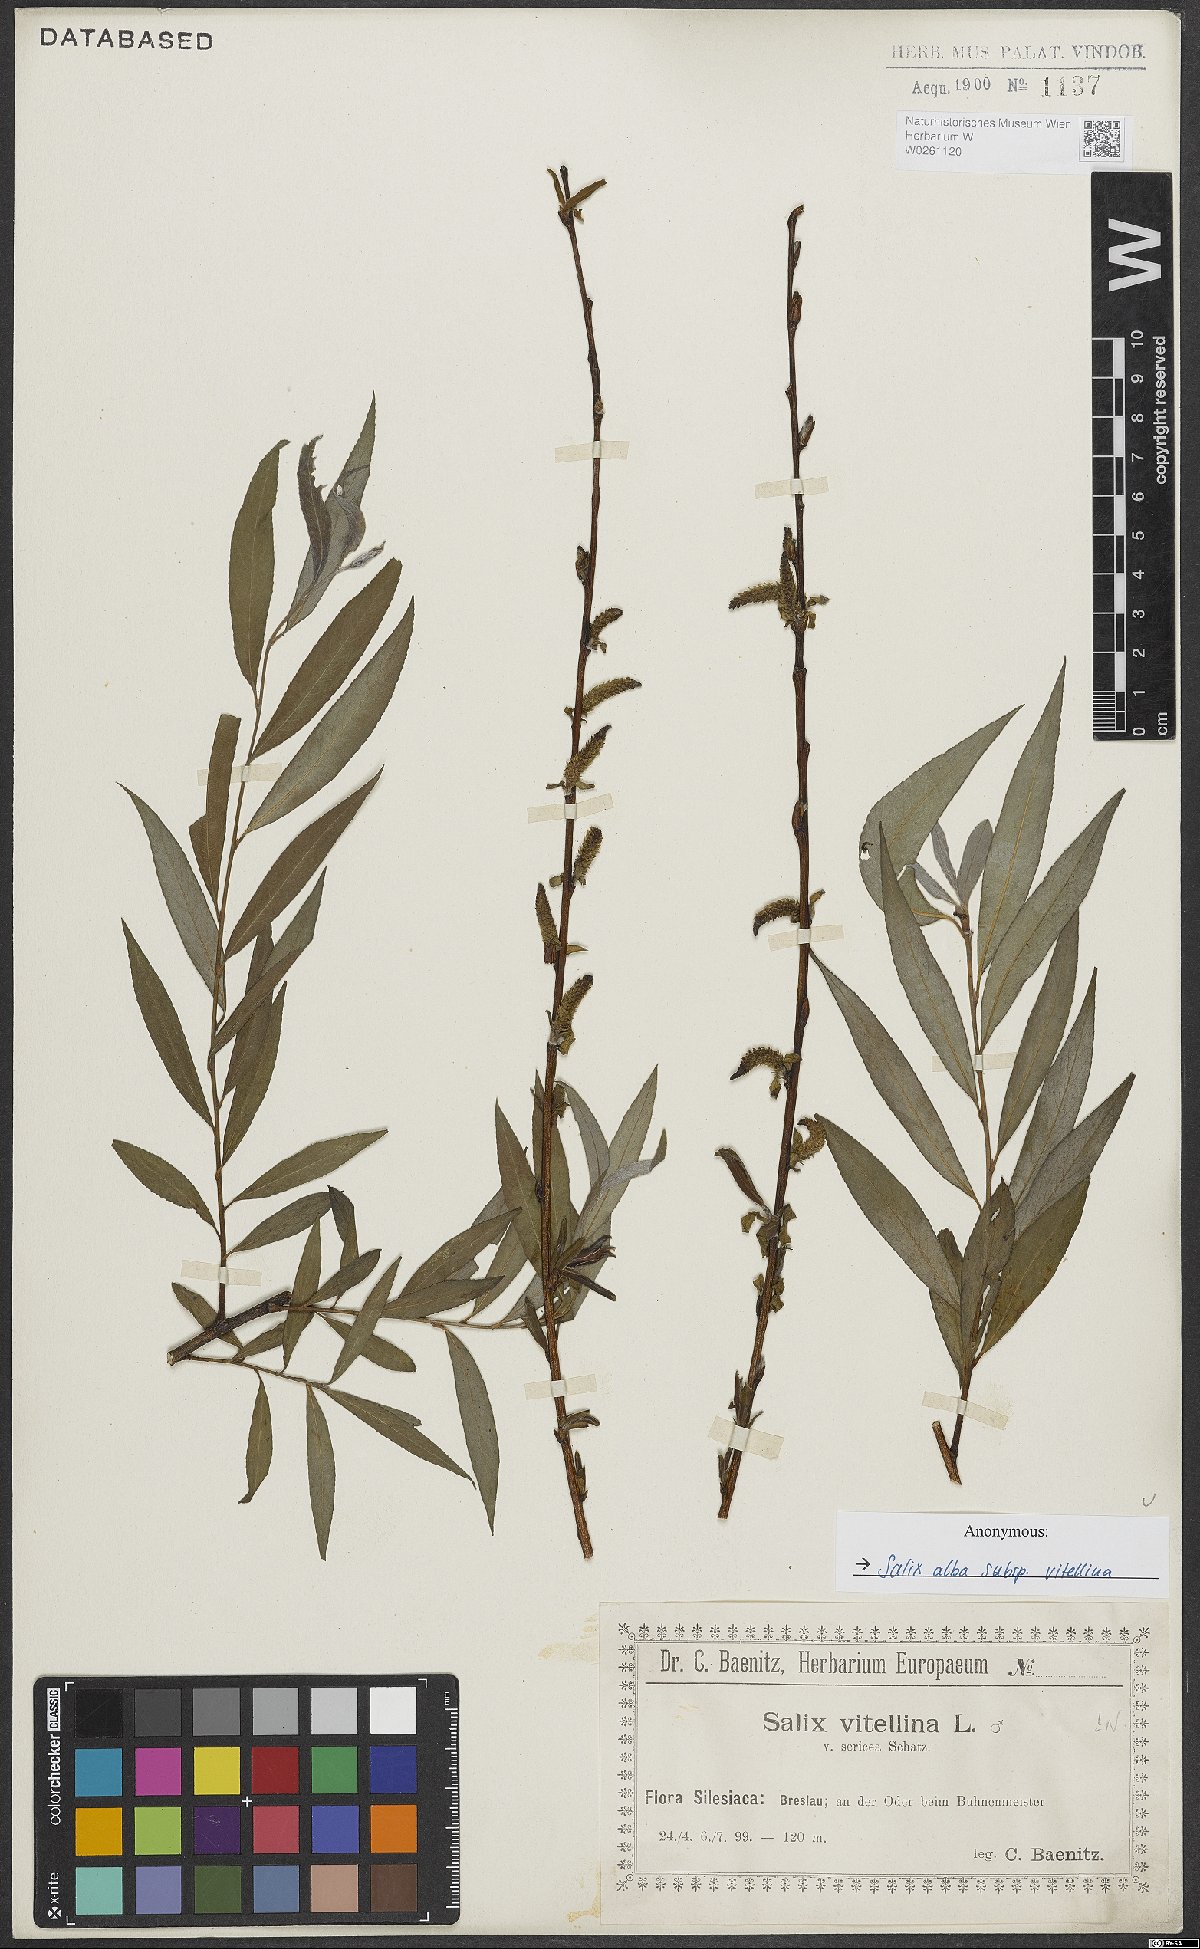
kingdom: Plantae
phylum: Tracheophyta
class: Magnoliopsida
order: Malpighiales
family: Salicaceae
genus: Salix
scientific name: Salix alba
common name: White willow
